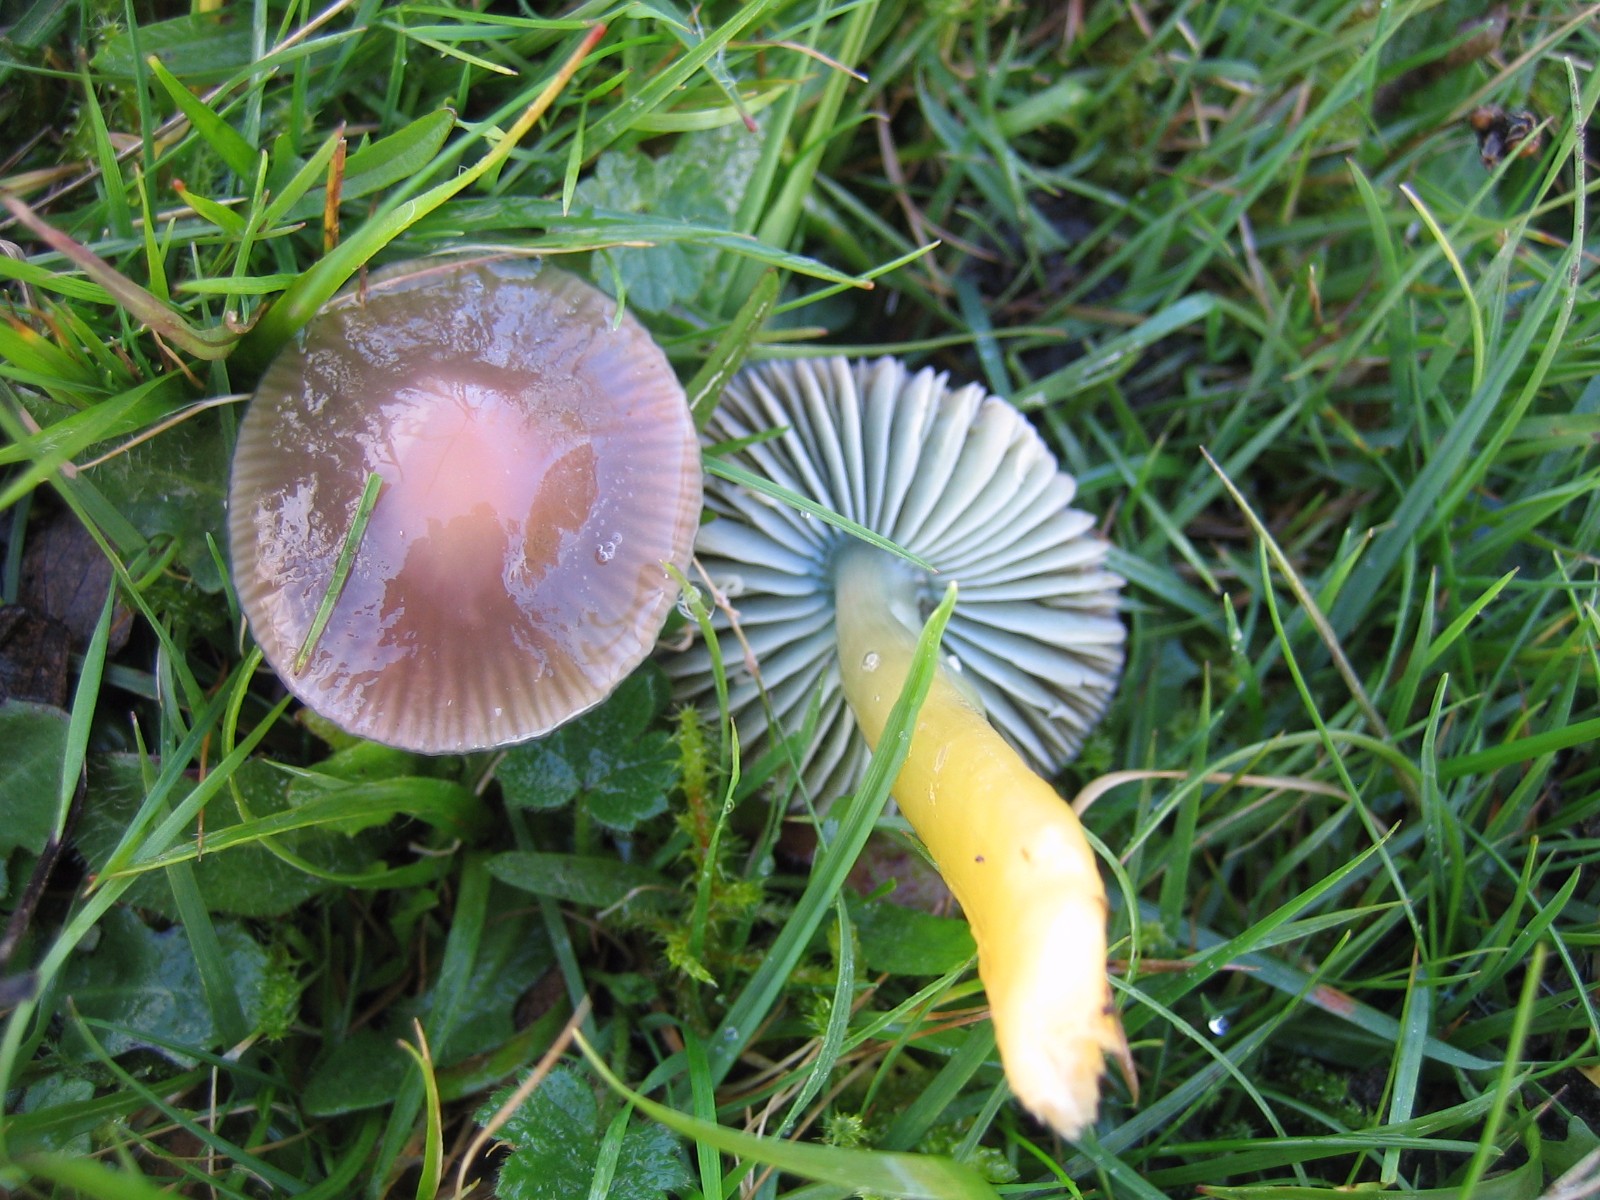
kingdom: Fungi
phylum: Basidiomycota
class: Agaricomycetes
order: Agaricales
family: Hygrophoraceae
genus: Gliophorus
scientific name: Gliophorus psittacinus
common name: papegøje-vokshat
